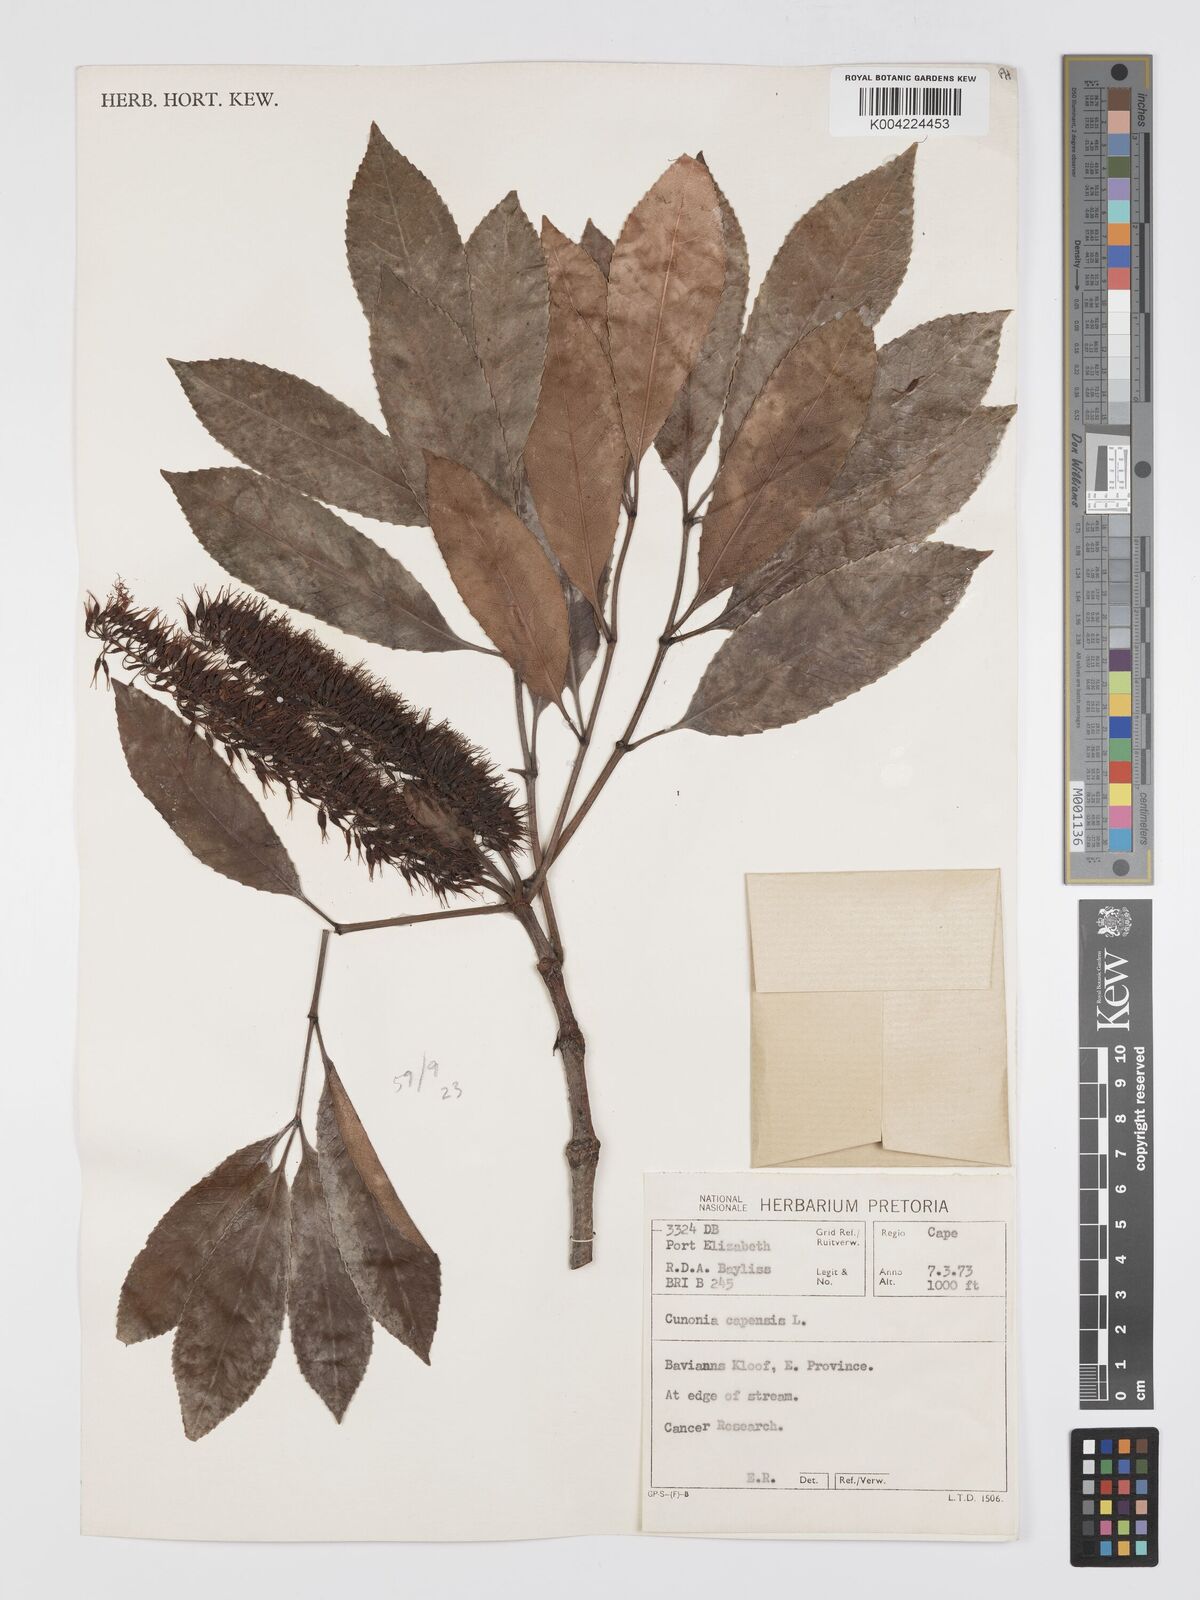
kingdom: Plantae
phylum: Tracheophyta
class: Magnoliopsida
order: Oxalidales
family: Cunoniaceae
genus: Cunonia
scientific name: Cunonia capensis
